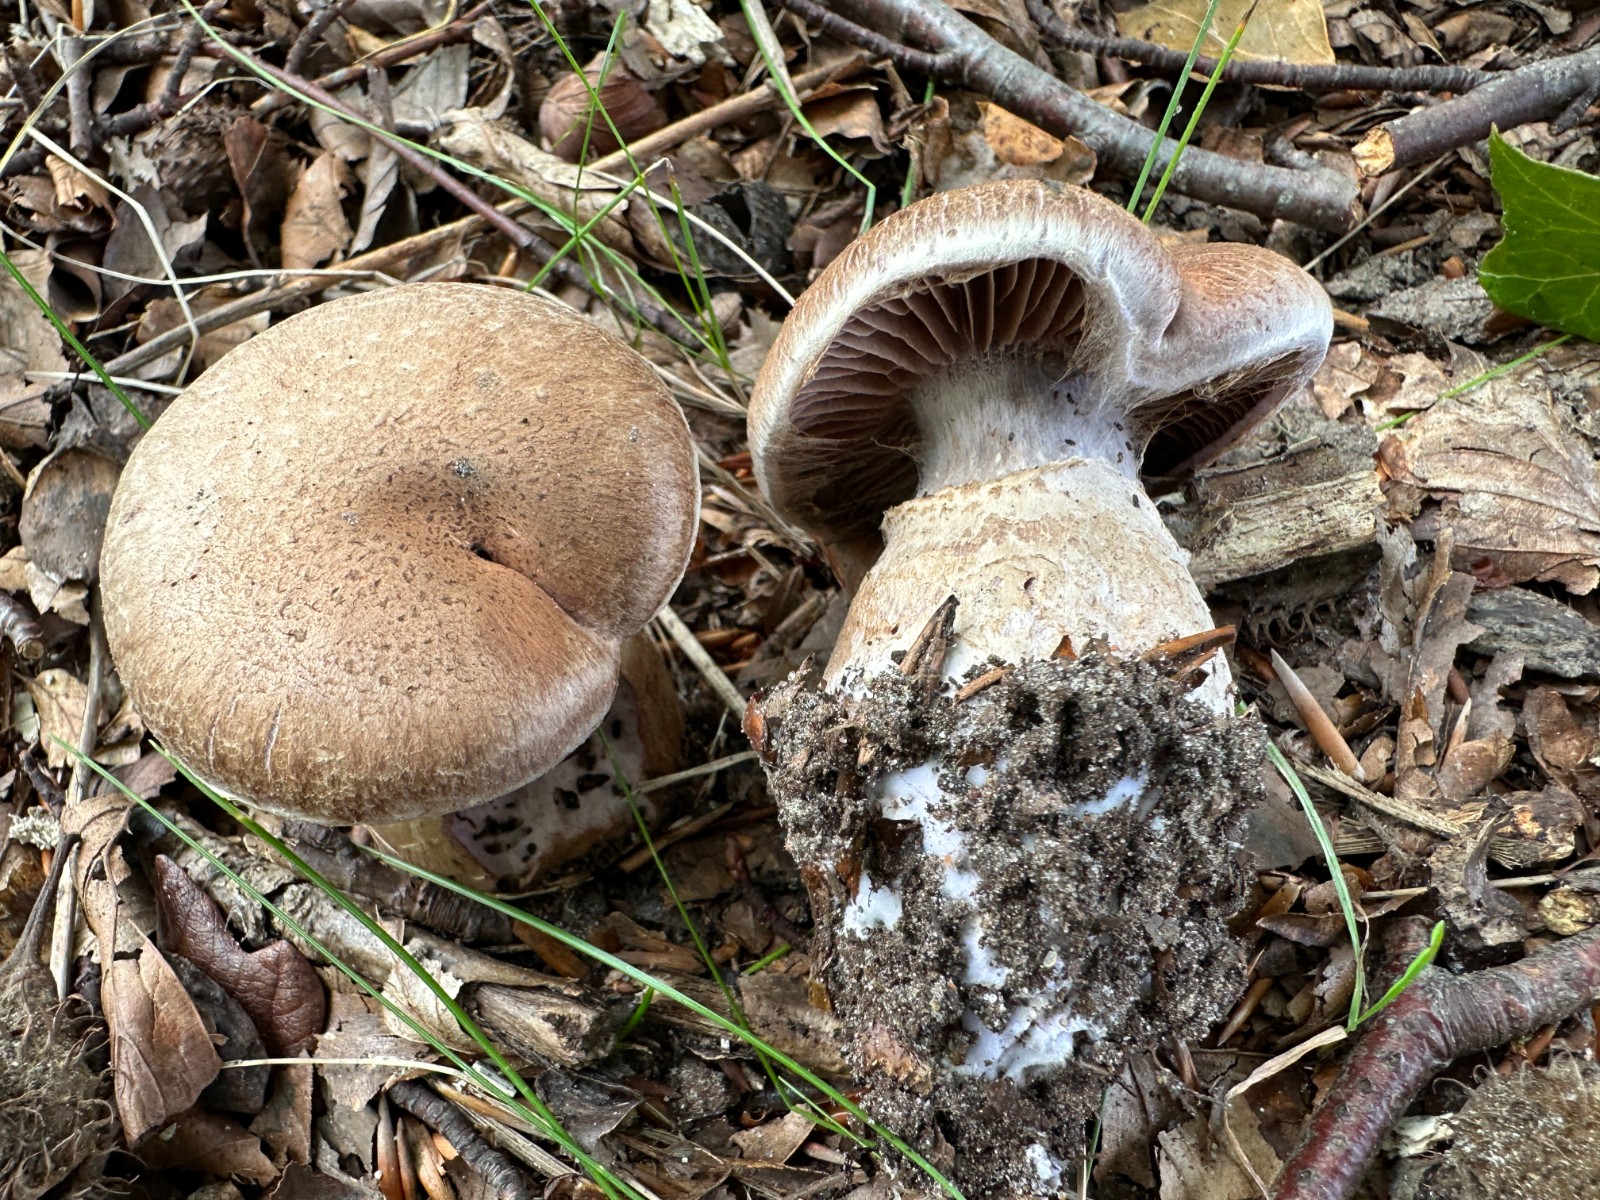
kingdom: Fungi
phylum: Basidiomycota
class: Agaricomycetes
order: Agaricales
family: Cortinariaceae
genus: Cortinarius
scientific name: Cortinarius torvus
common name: champignonagtig slørhat
